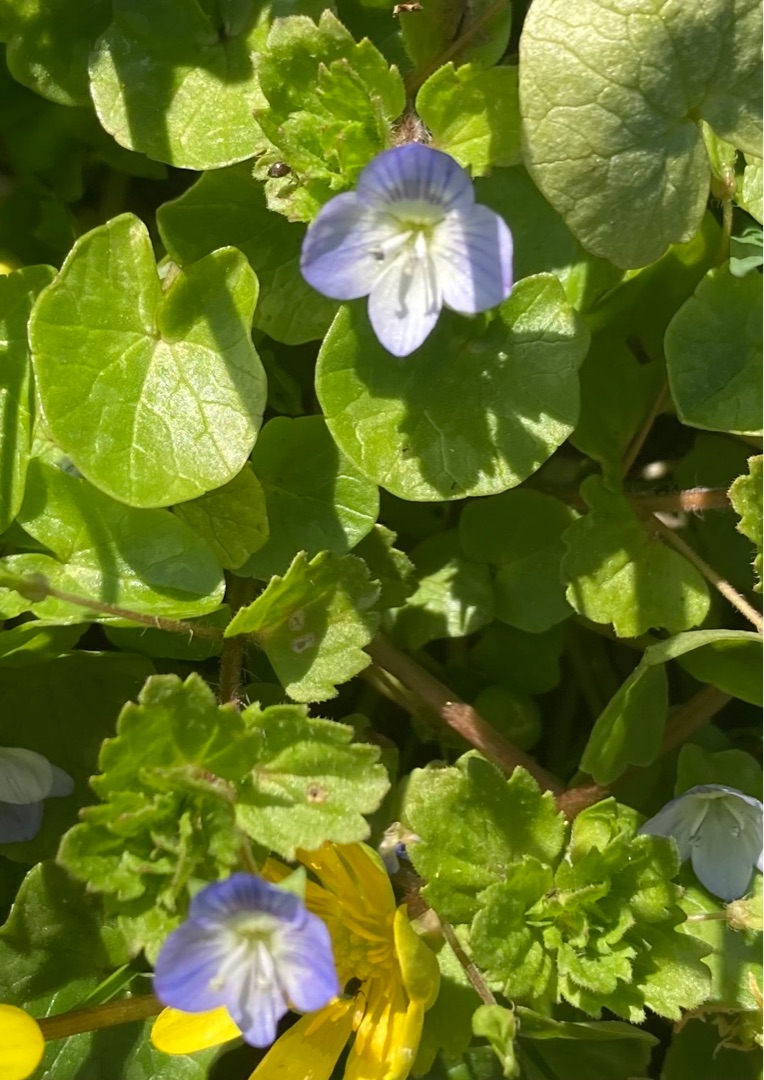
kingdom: Plantae
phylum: Tracheophyta
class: Magnoliopsida
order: Lamiales
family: Plantaginaceae
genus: Veronica
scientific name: Veronica persica
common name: Storkronet ærenpris
